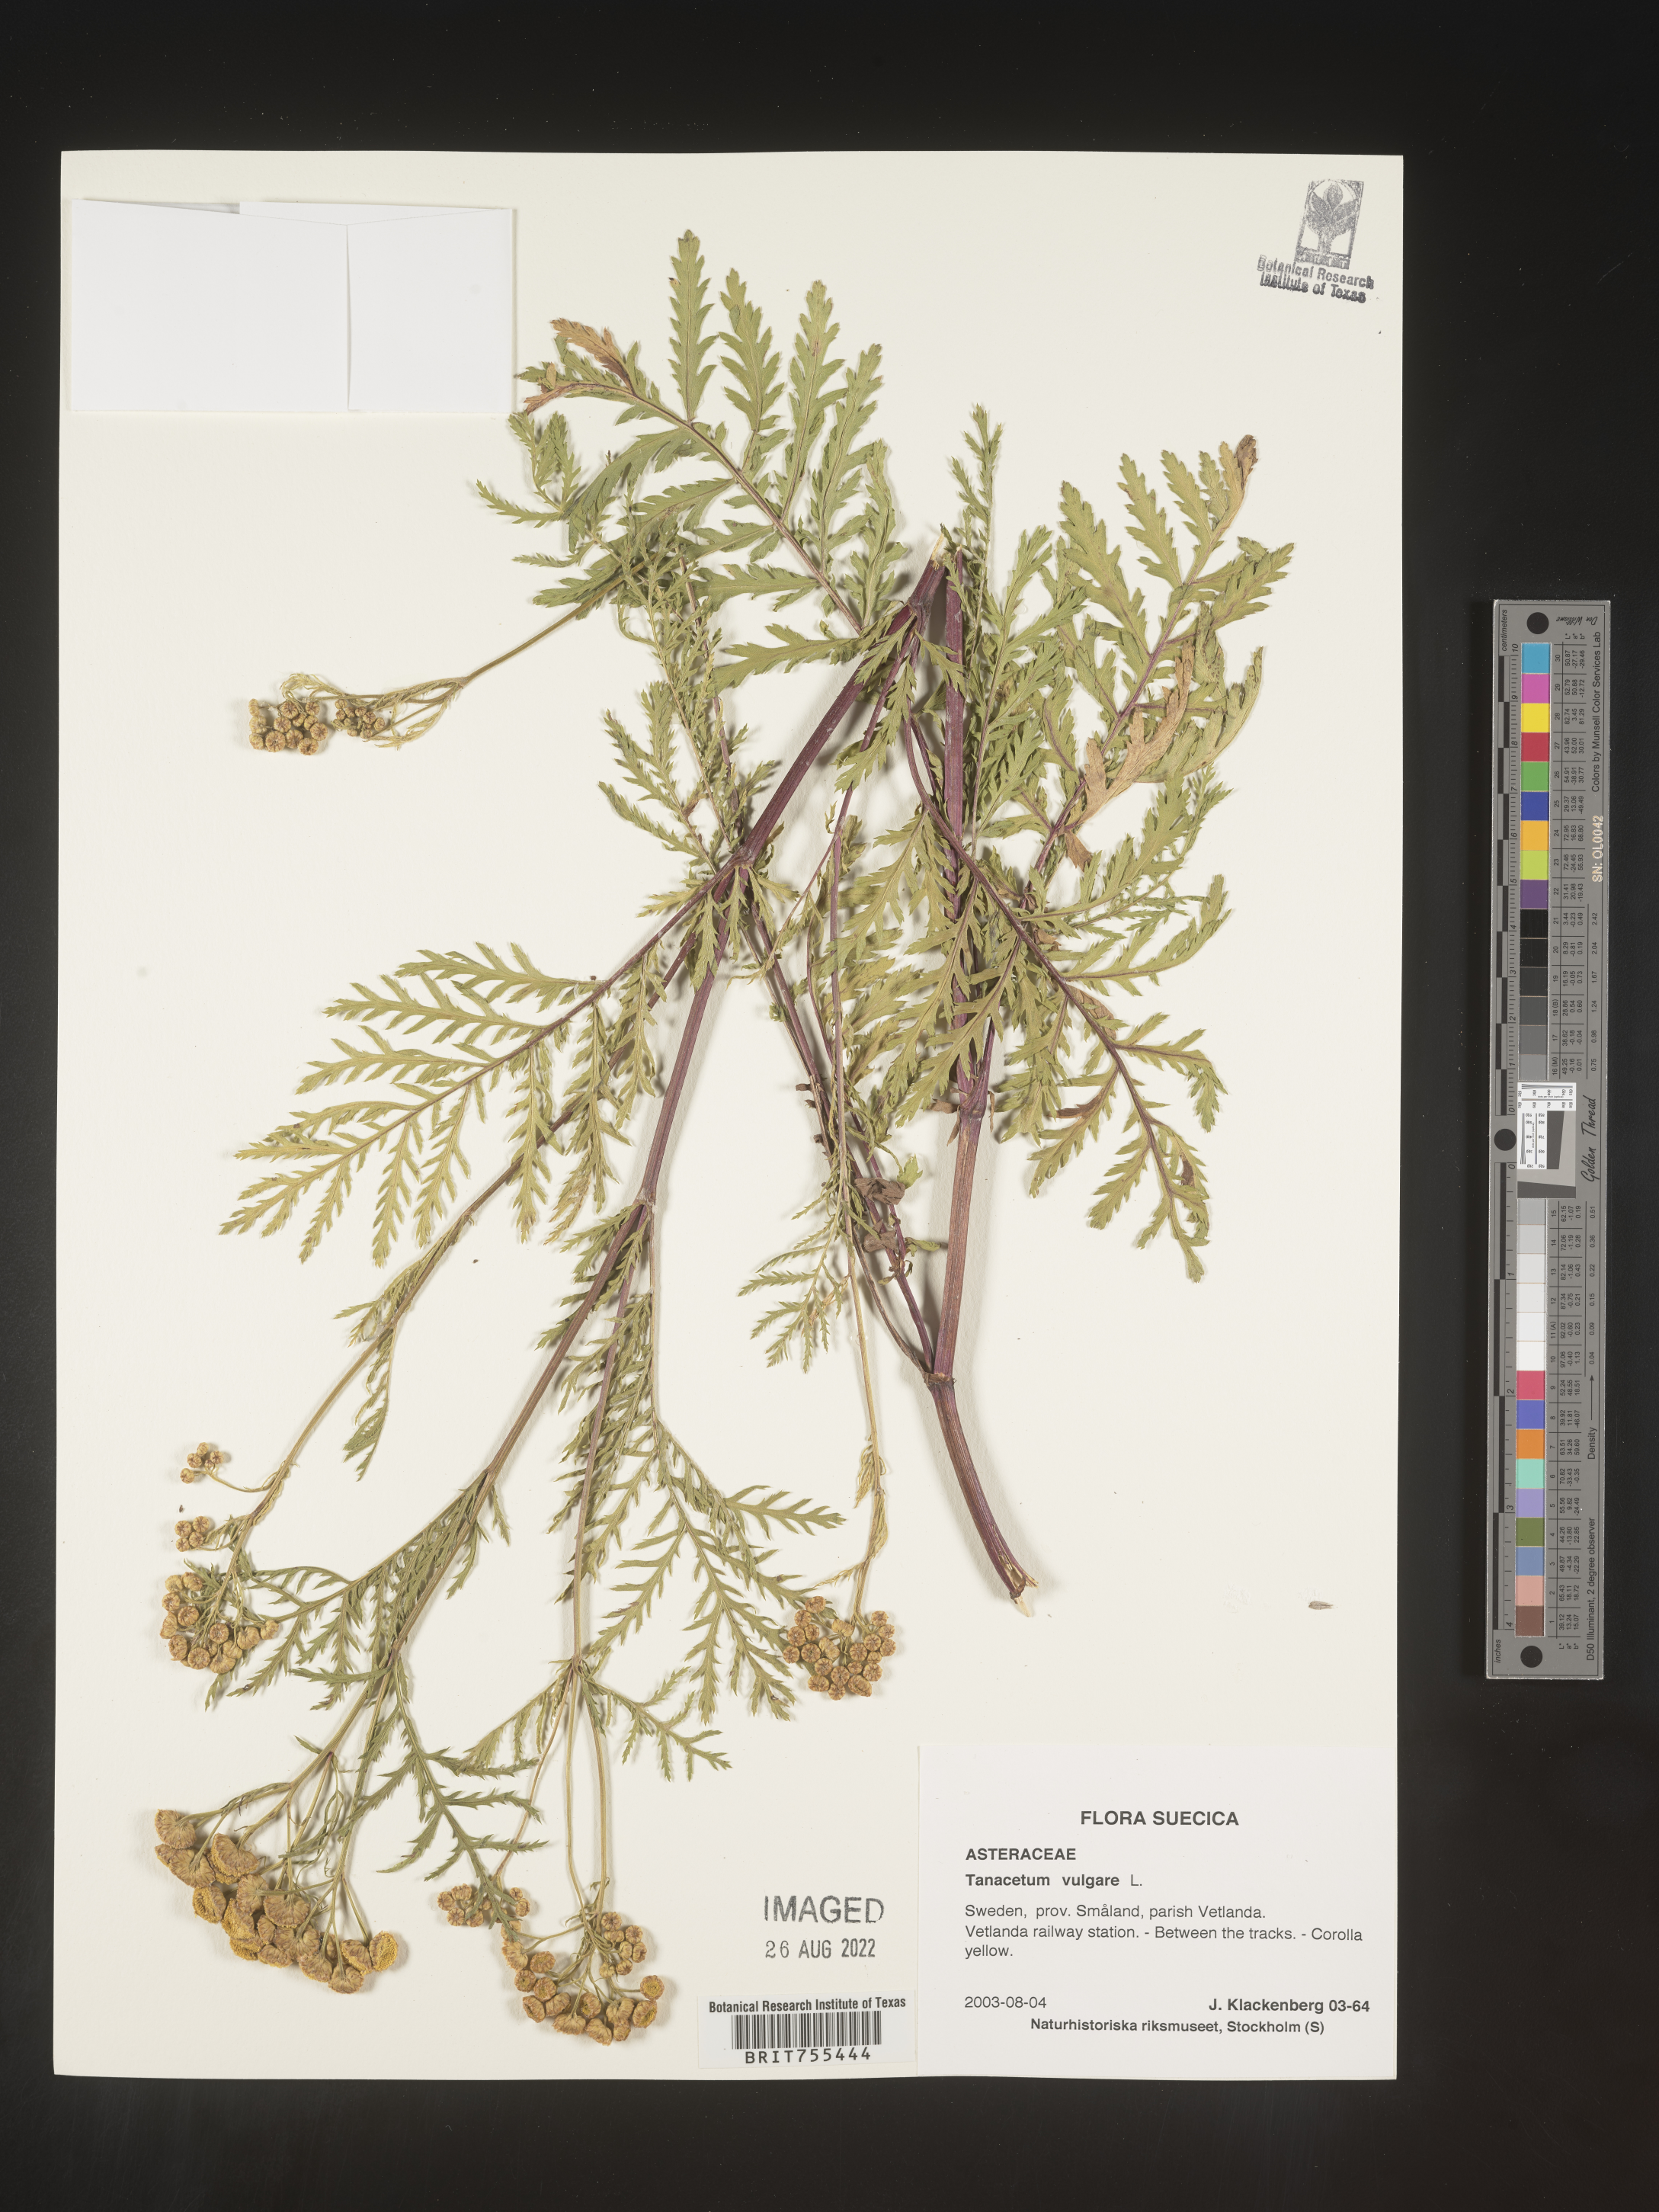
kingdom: Plantae
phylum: Tracheophyta
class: Magnoliopsida
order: Asterales
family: Asteraceae
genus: Tanacetum
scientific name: Tanacetum
